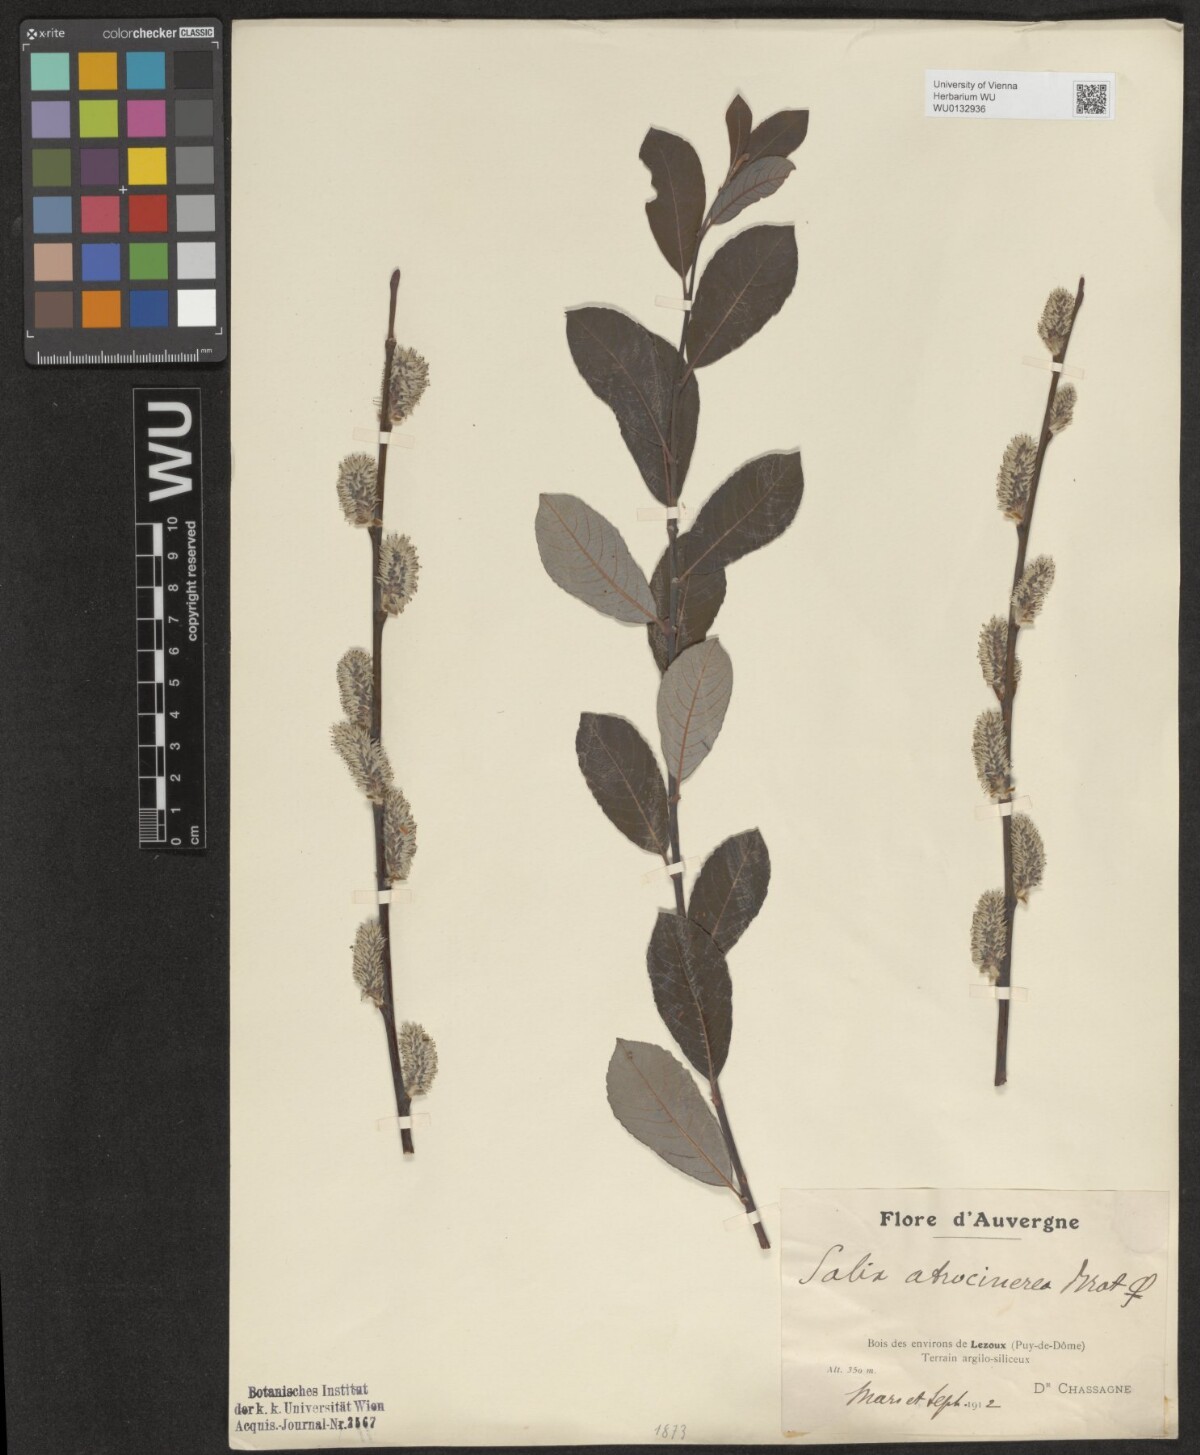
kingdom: Plantae
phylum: Tracheophyta
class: Magnoliopsida
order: Malpighiales
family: Salicaceae
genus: Salix
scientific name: Salix atrocinerea
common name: Rusty willow
